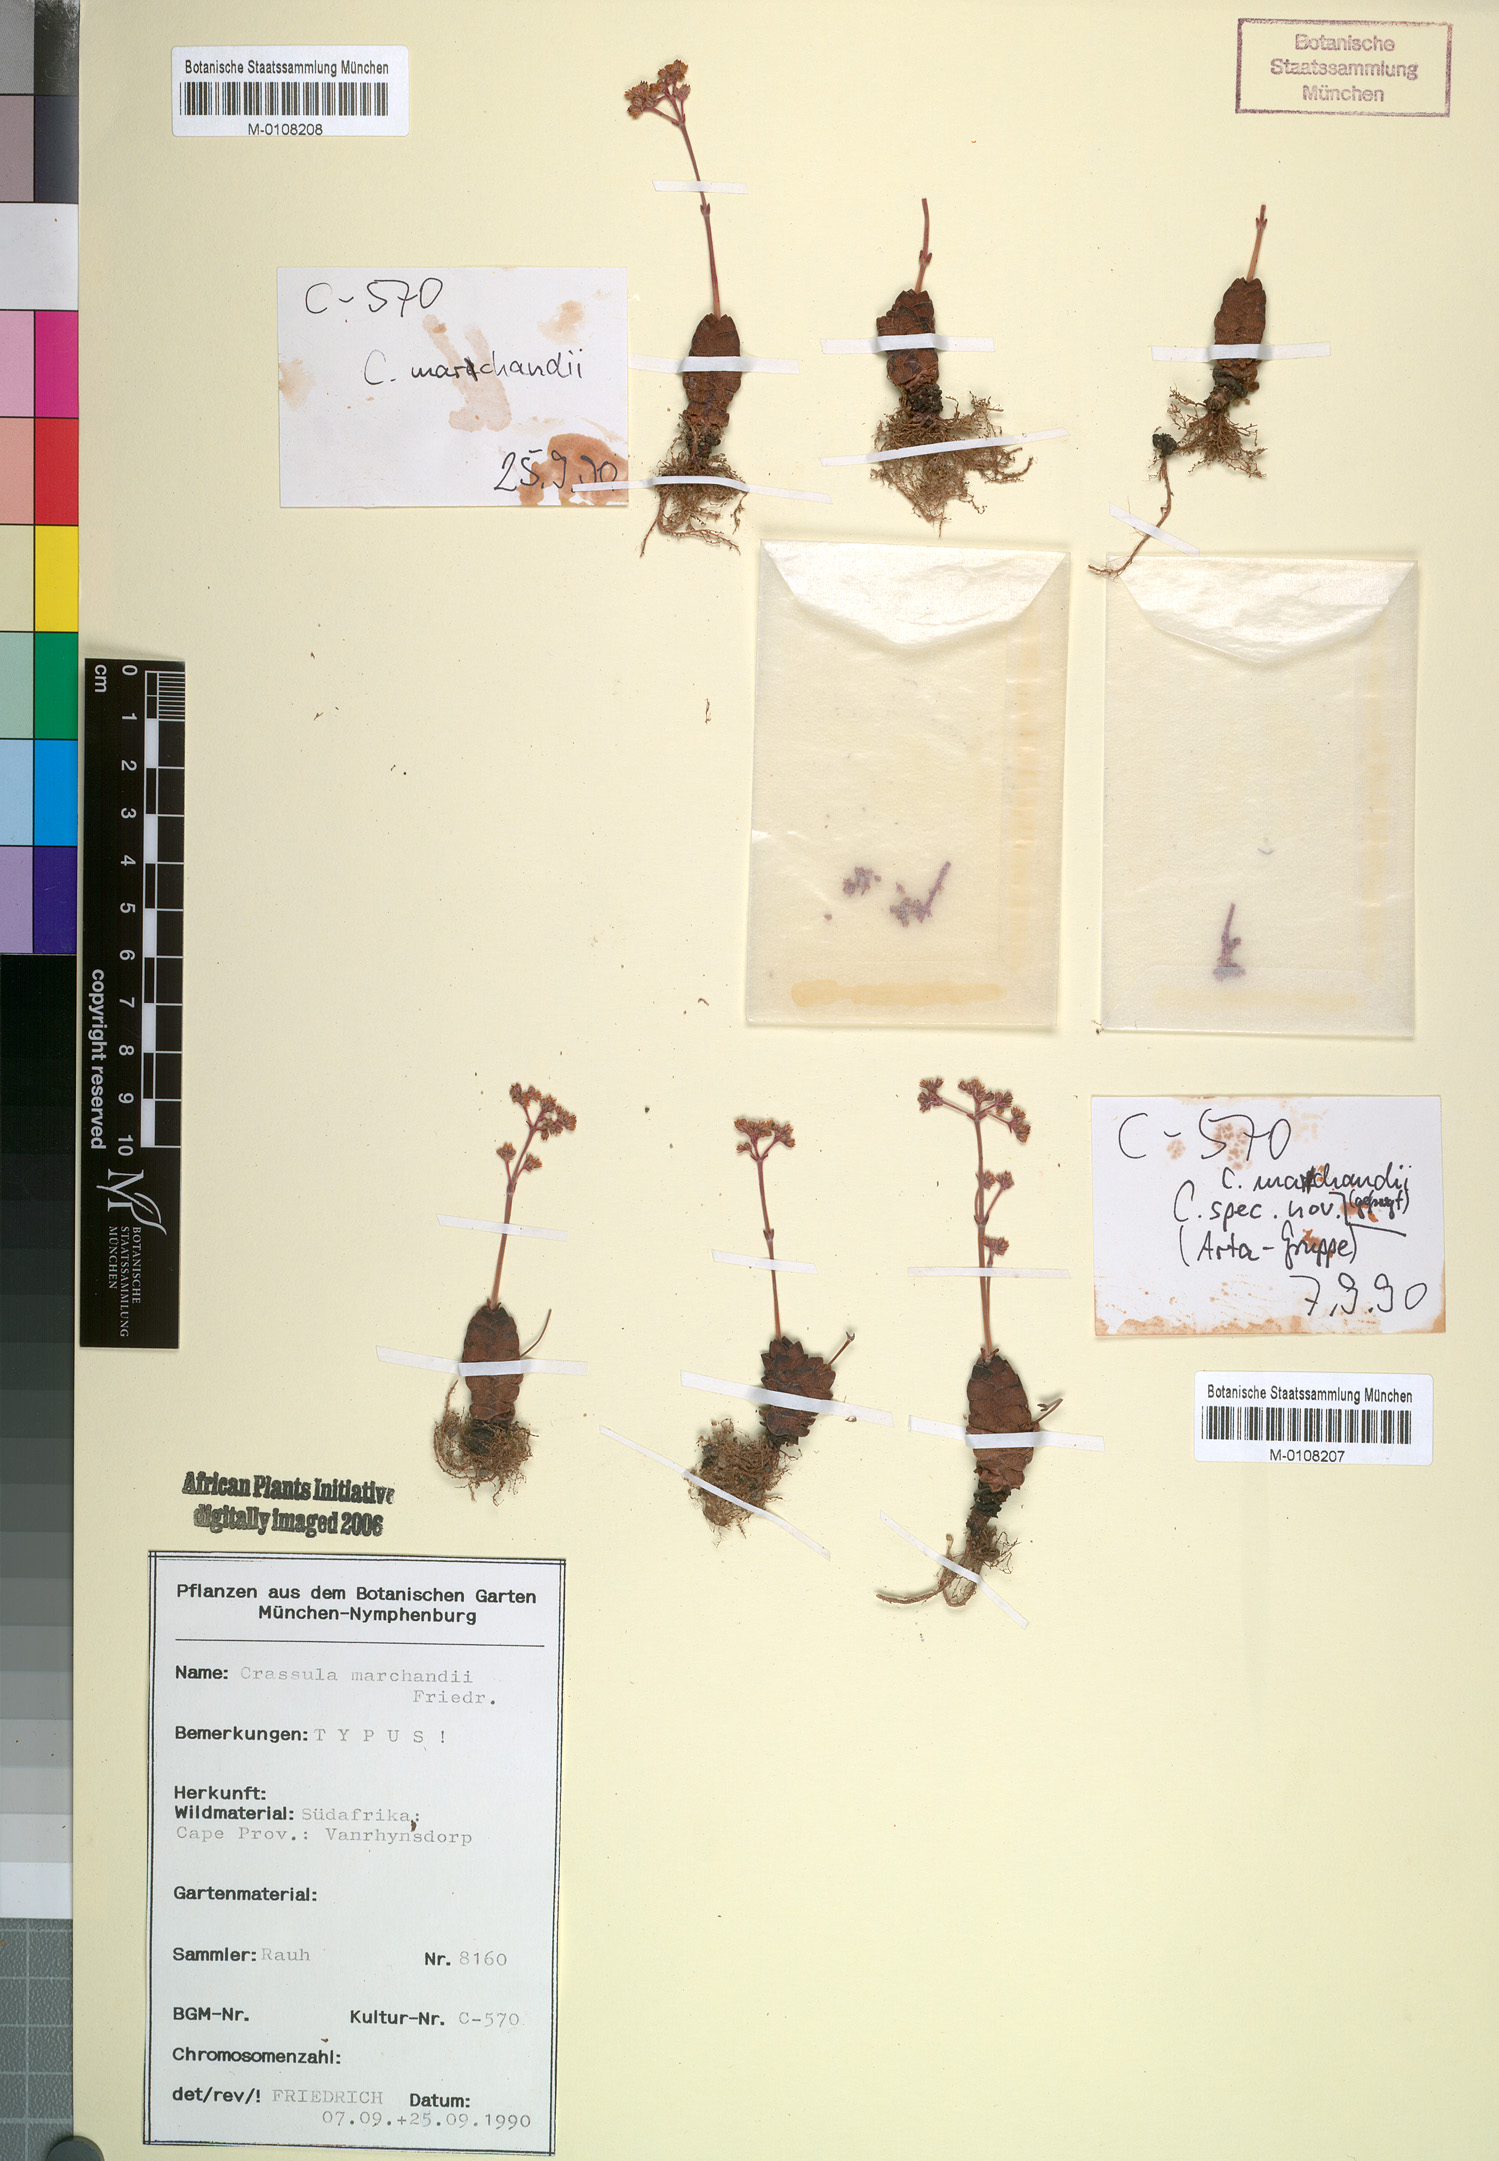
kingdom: Plantae
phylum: Tracheophyta
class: Magnoliopsida
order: Saxifragales
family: Crassulaceae
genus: Crassula
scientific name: Crassula marchandii
